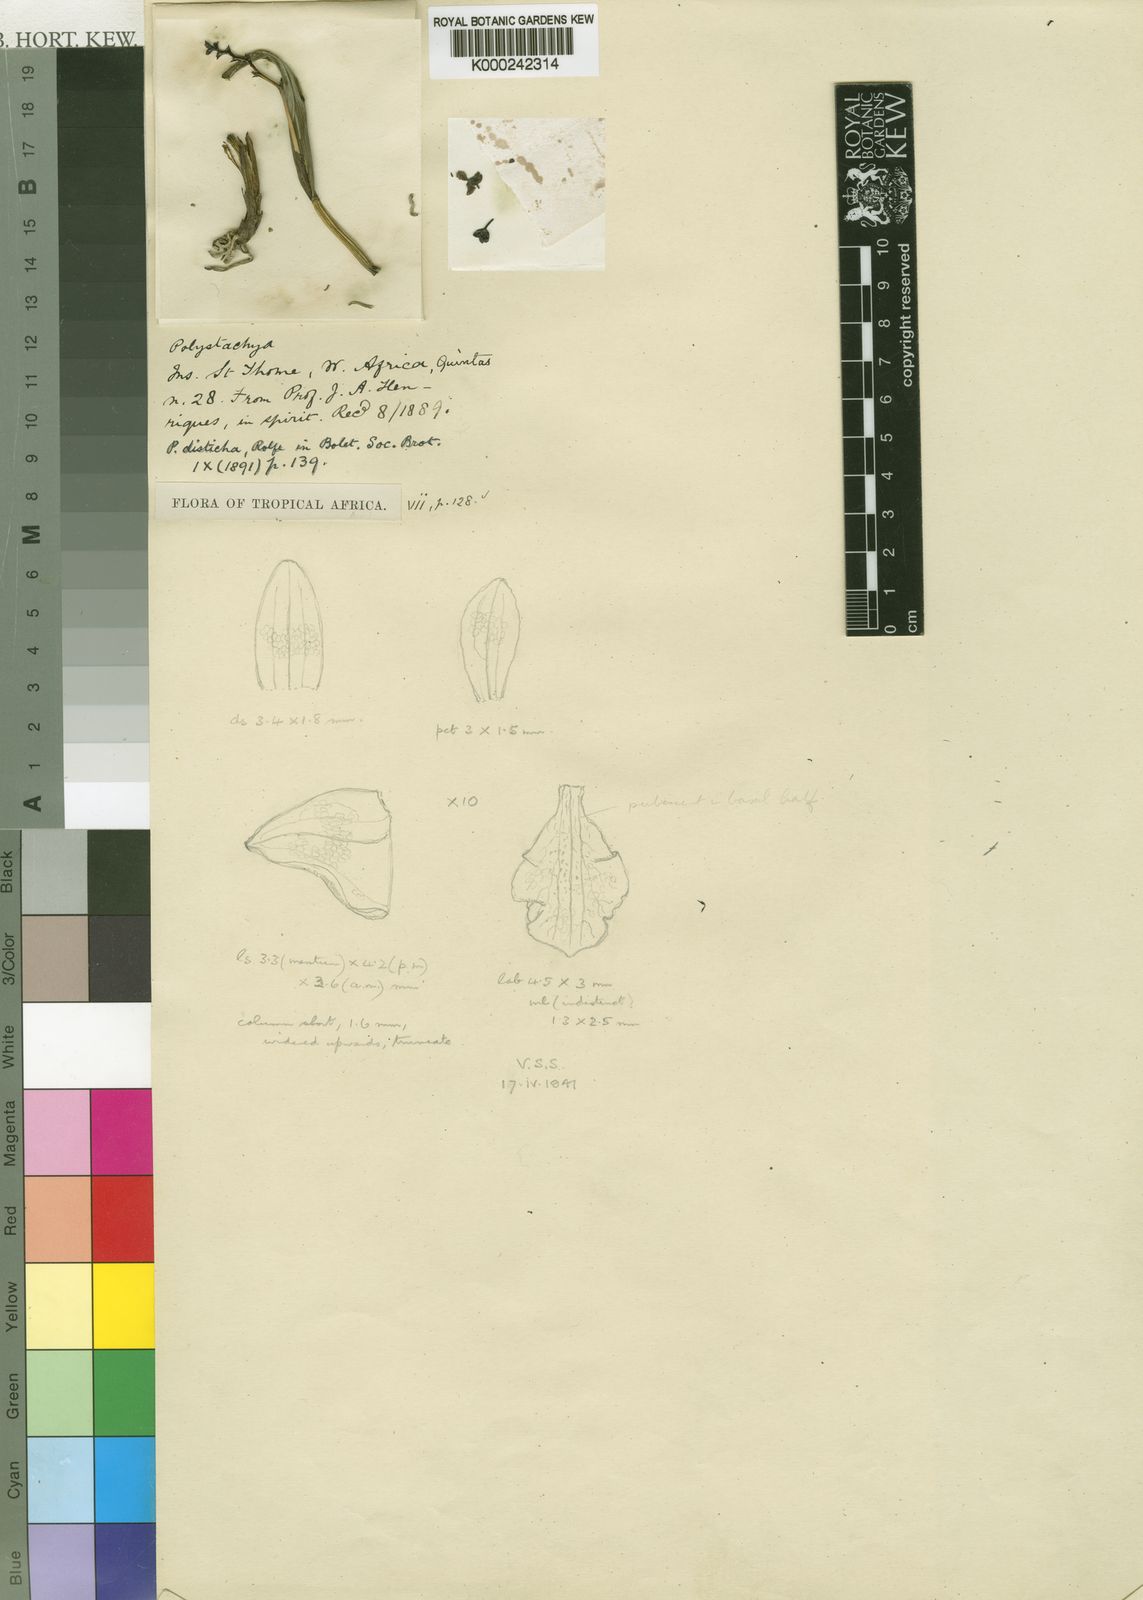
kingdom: Plantae
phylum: Tracheophyta
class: Liliopsida
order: Asparagales
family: Orchidaceae
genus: Polystachya
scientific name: Polystachya disticha
